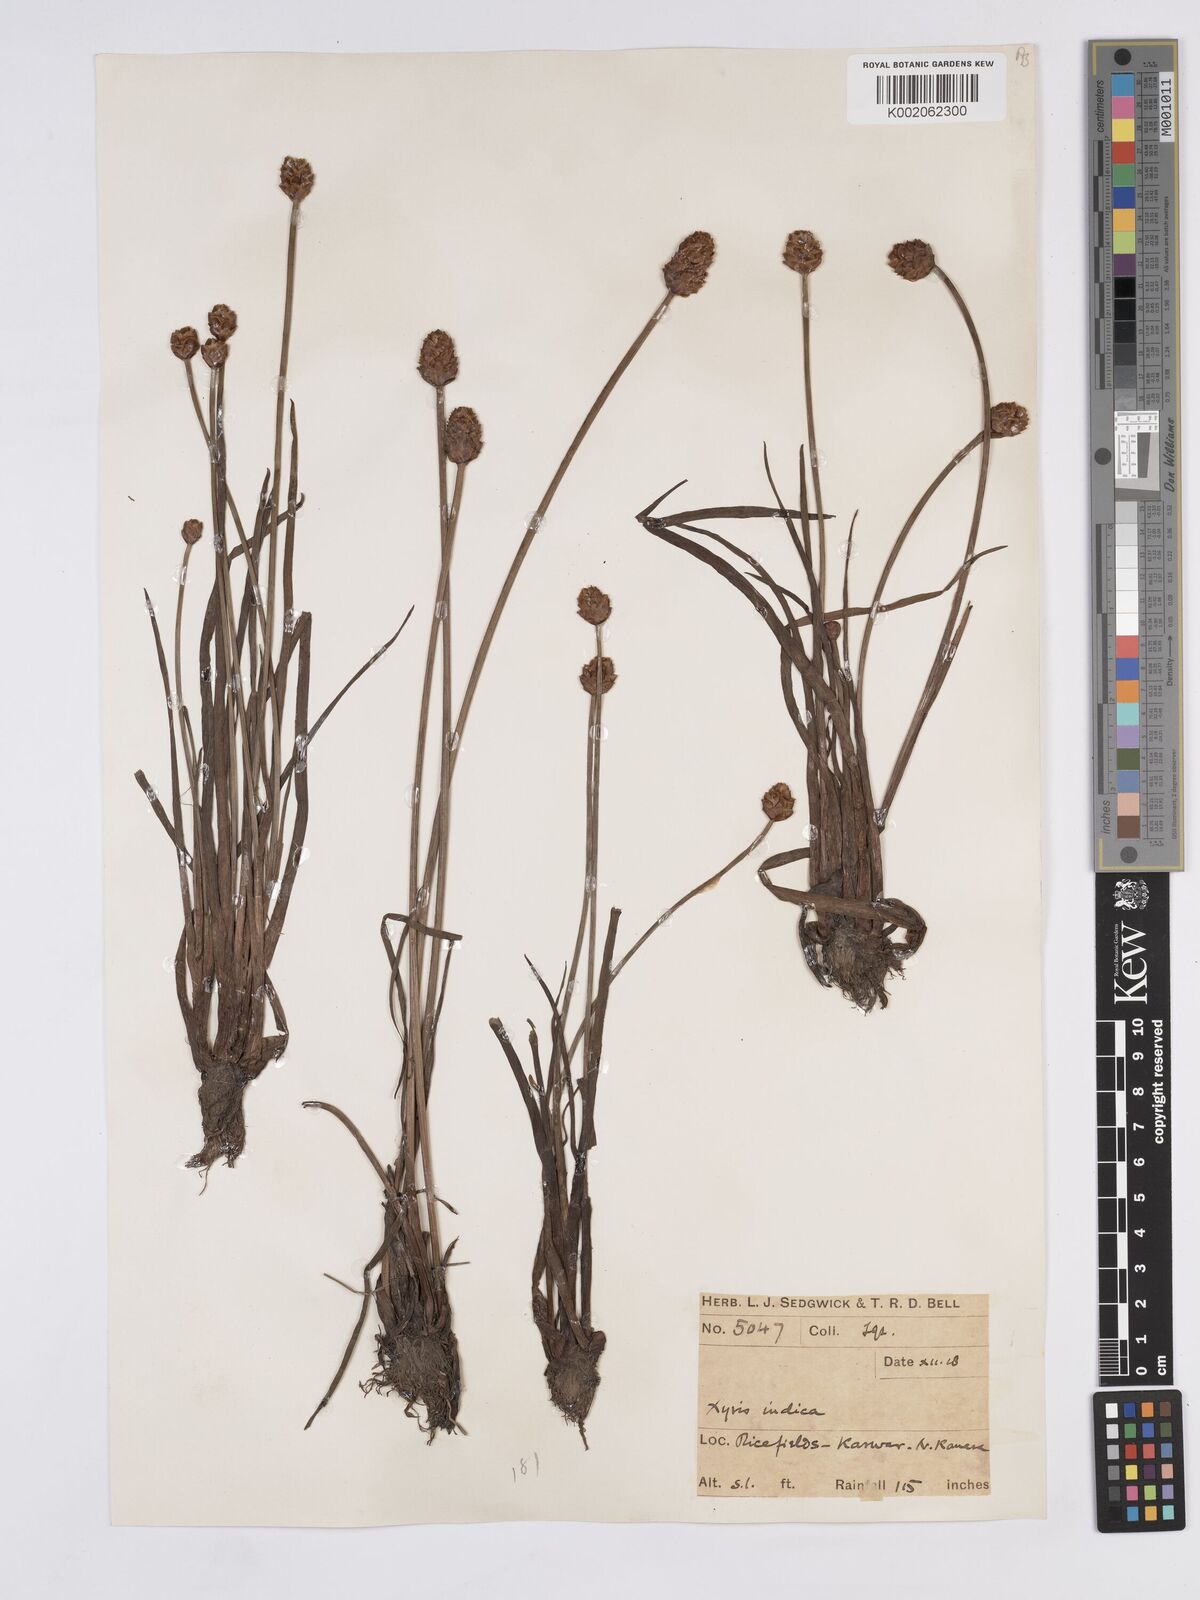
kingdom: Plantae
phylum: Tracheophyta
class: Liliopsida
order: Poales
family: Xyridaceae
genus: Xyris
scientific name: Xyris indica
